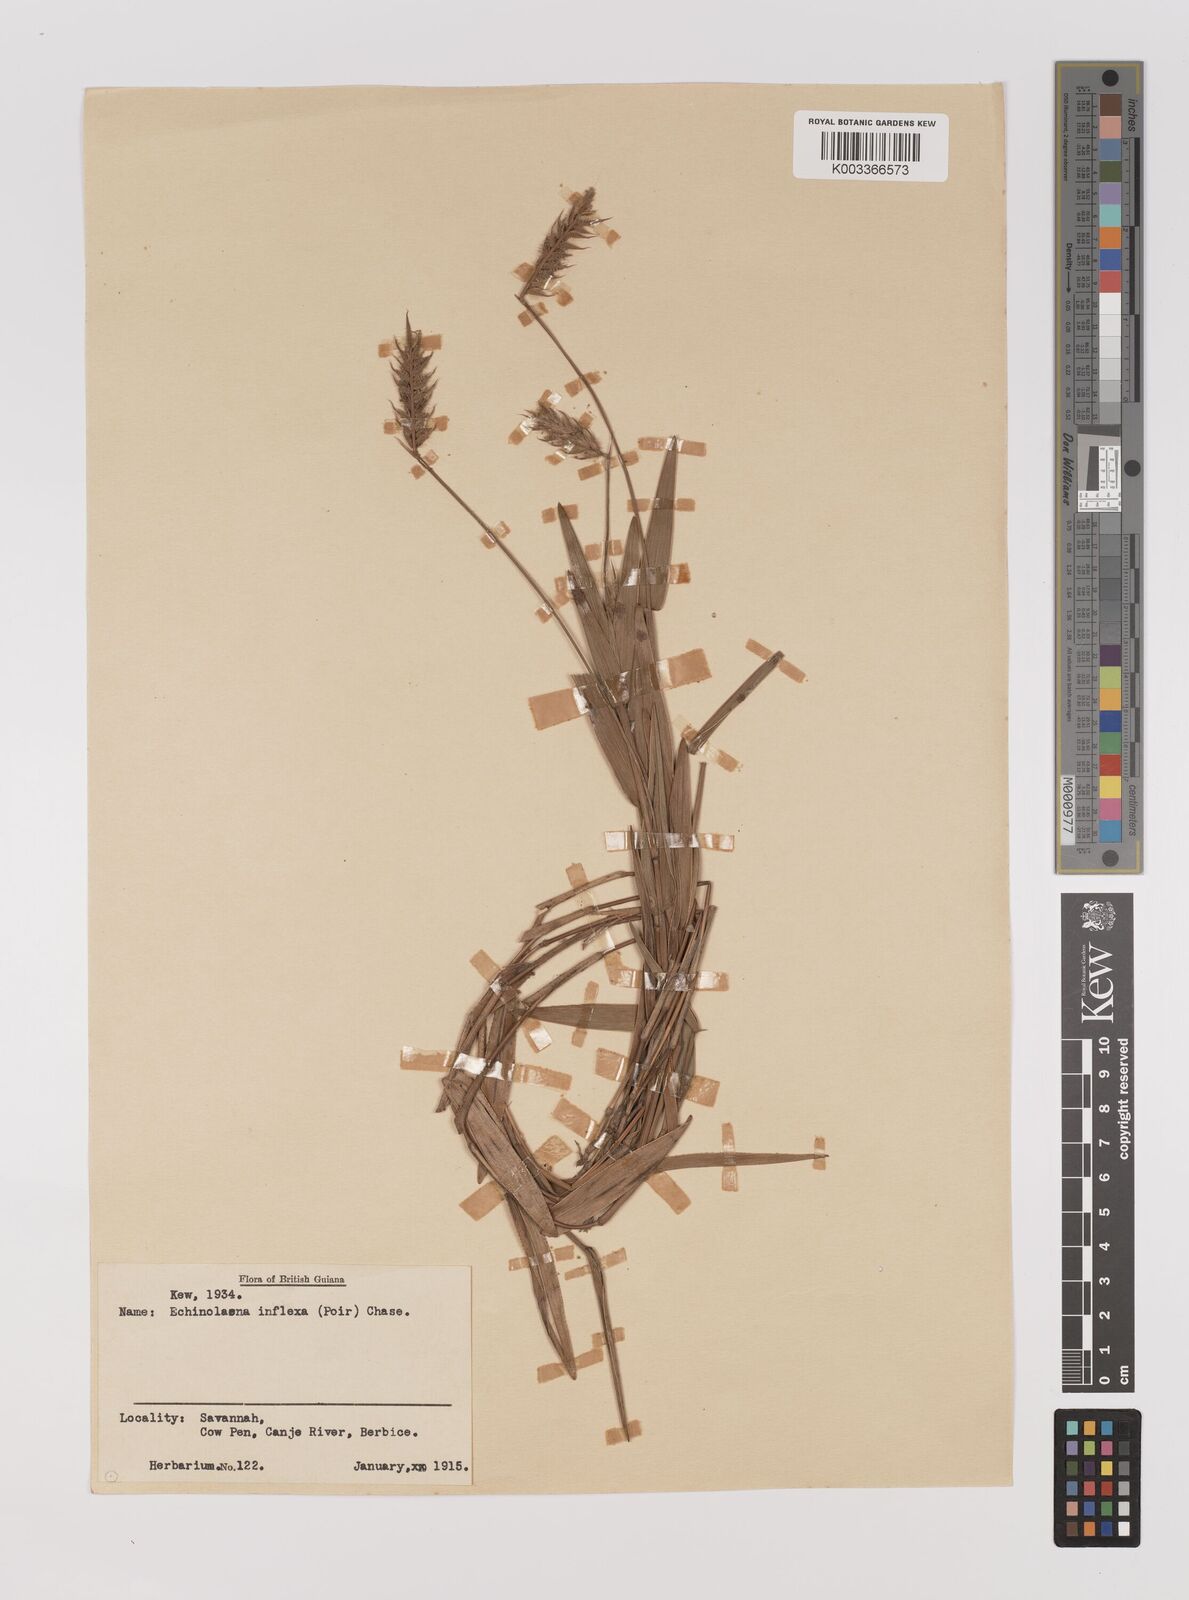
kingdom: Plantae
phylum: Tracheophyta
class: Liliopsida
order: Poales
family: Poaceae
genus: Echinolaena
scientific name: Echinolaena inflexa
